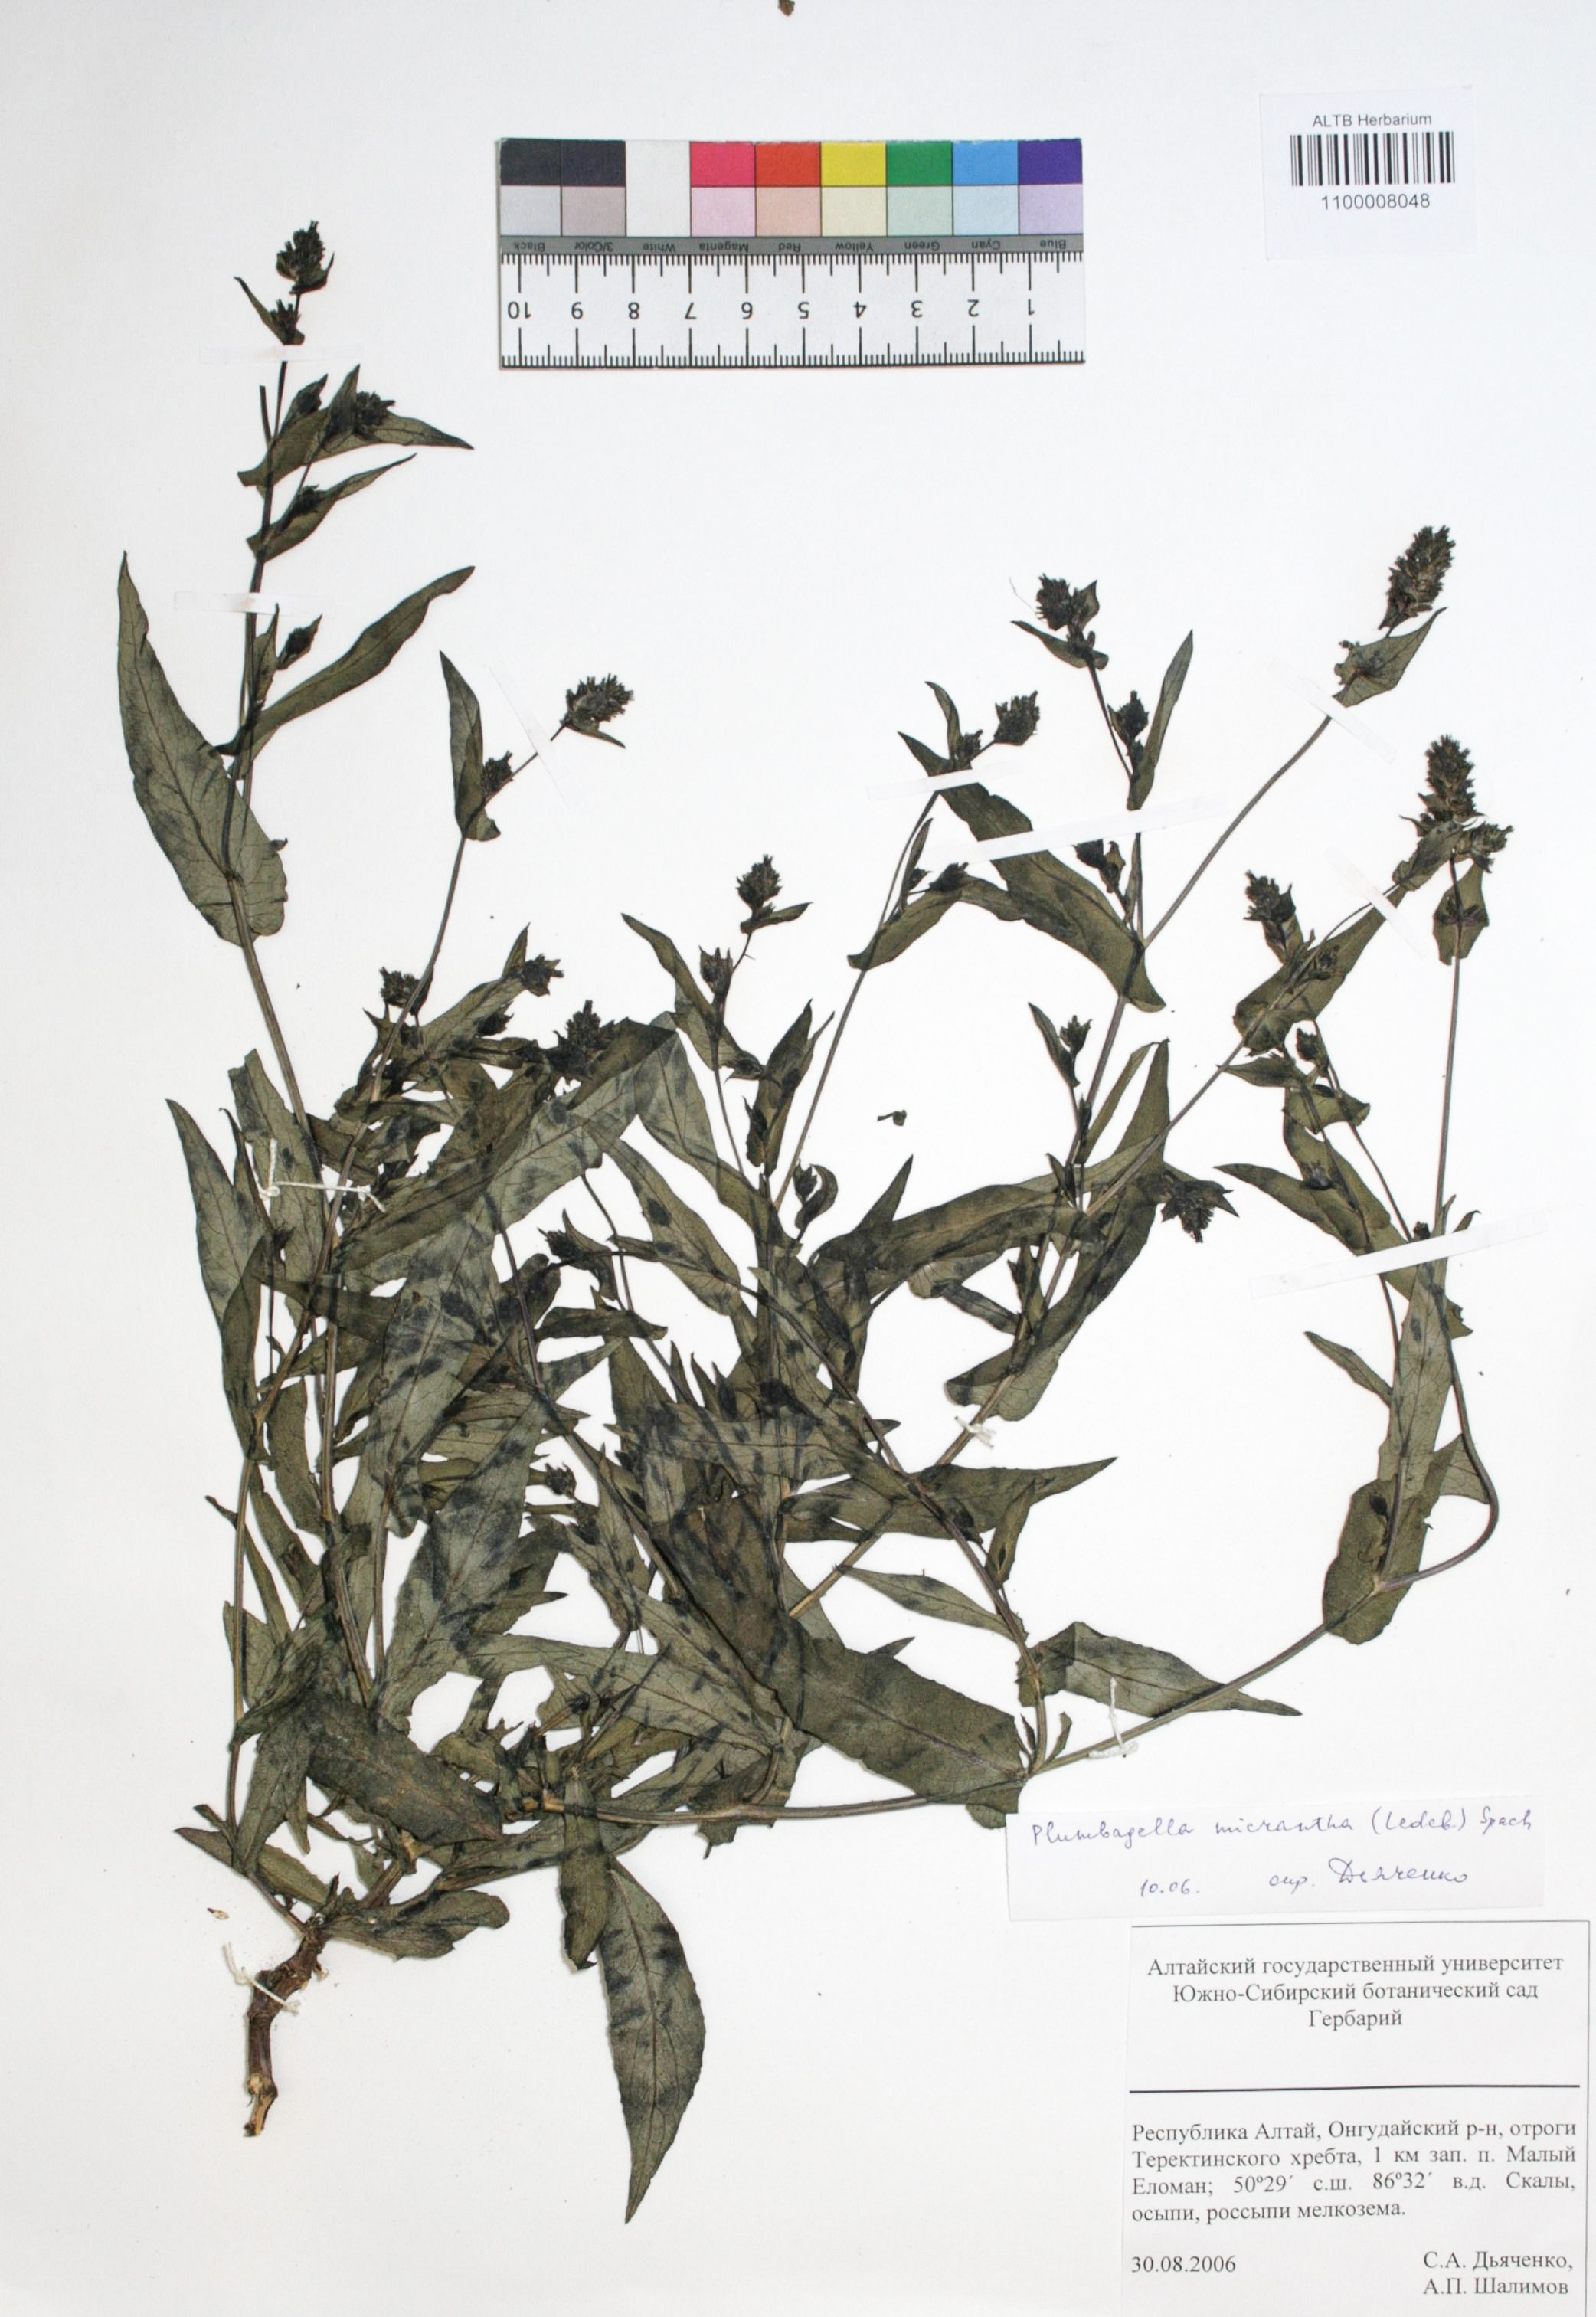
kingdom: Plantae
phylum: Tracheophyta
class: Magnoliopsida
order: Caryophyllales
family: Plumbaginaceae
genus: Plumbagella
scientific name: Plumbagella micrantha
